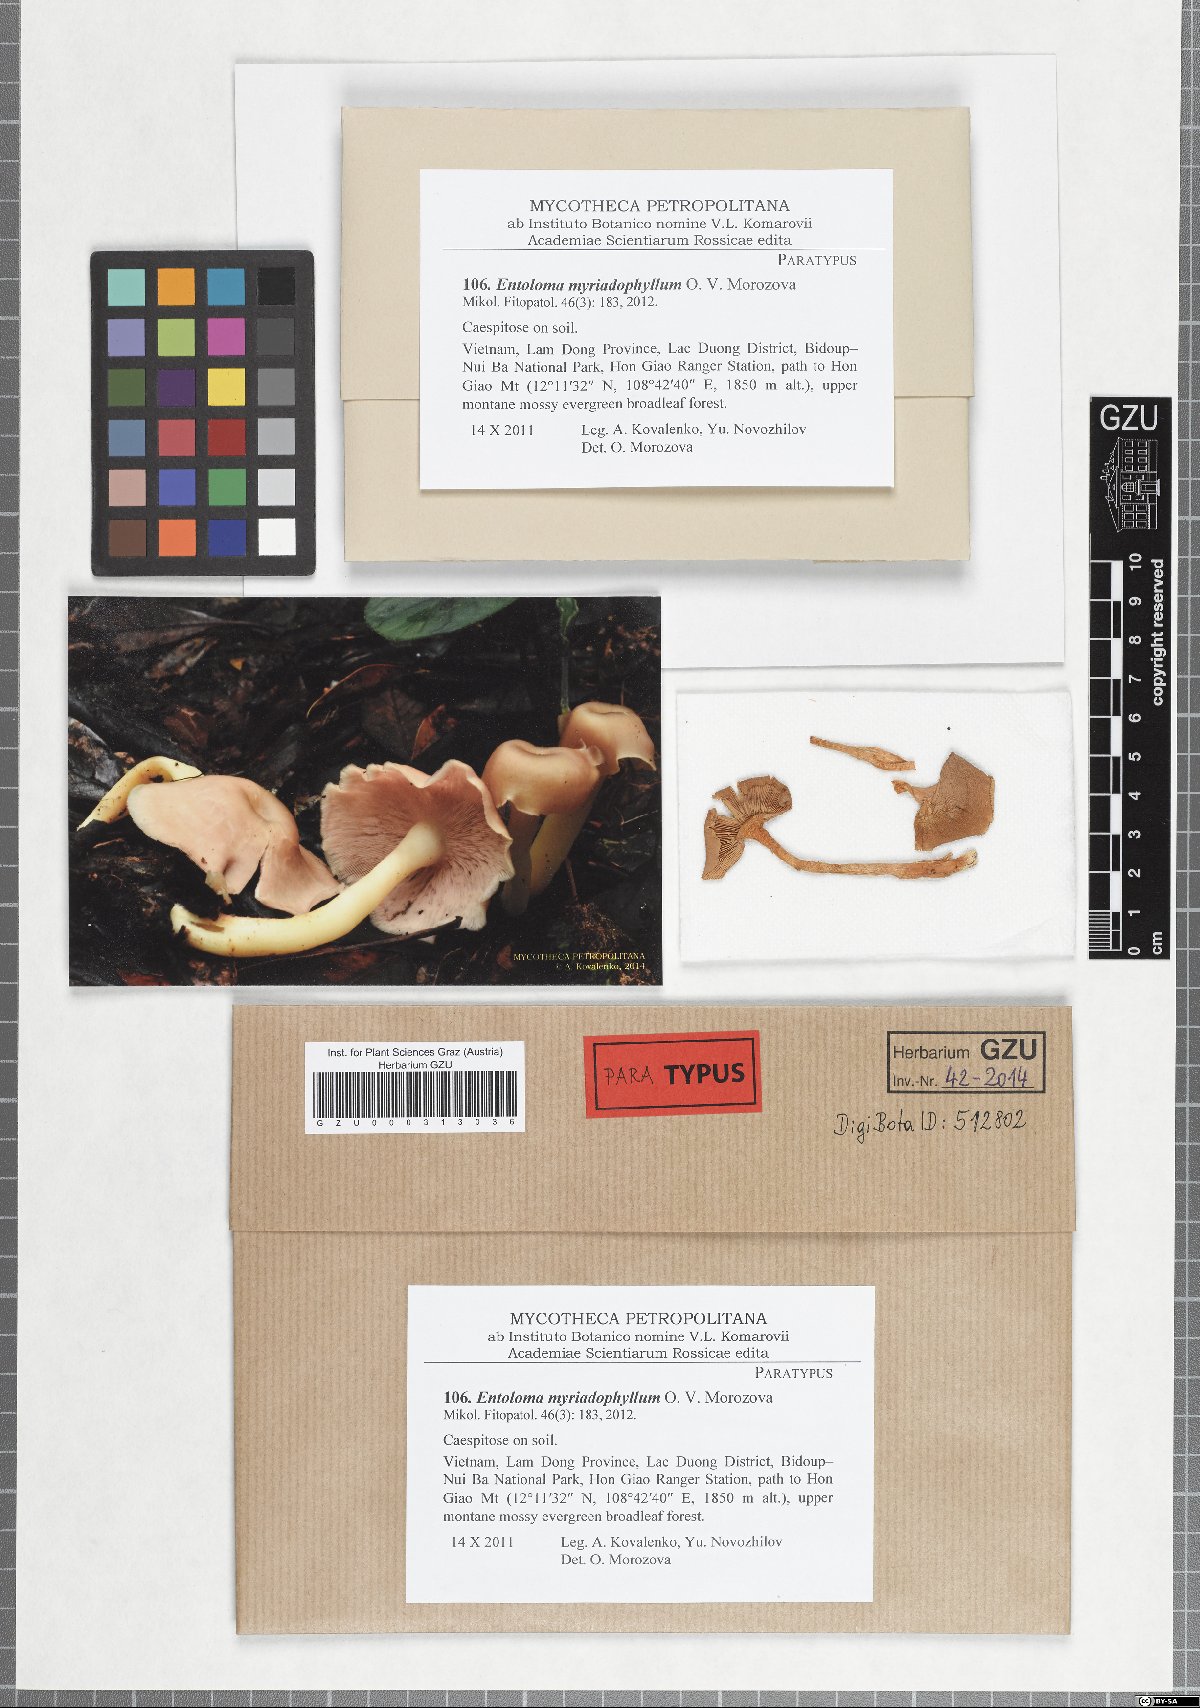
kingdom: Fungi
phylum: Basidiomycota
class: Agaricomycetes
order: Agaricales
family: Entolomataceae
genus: Entoloma
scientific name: Entoloma myriadophyllum
